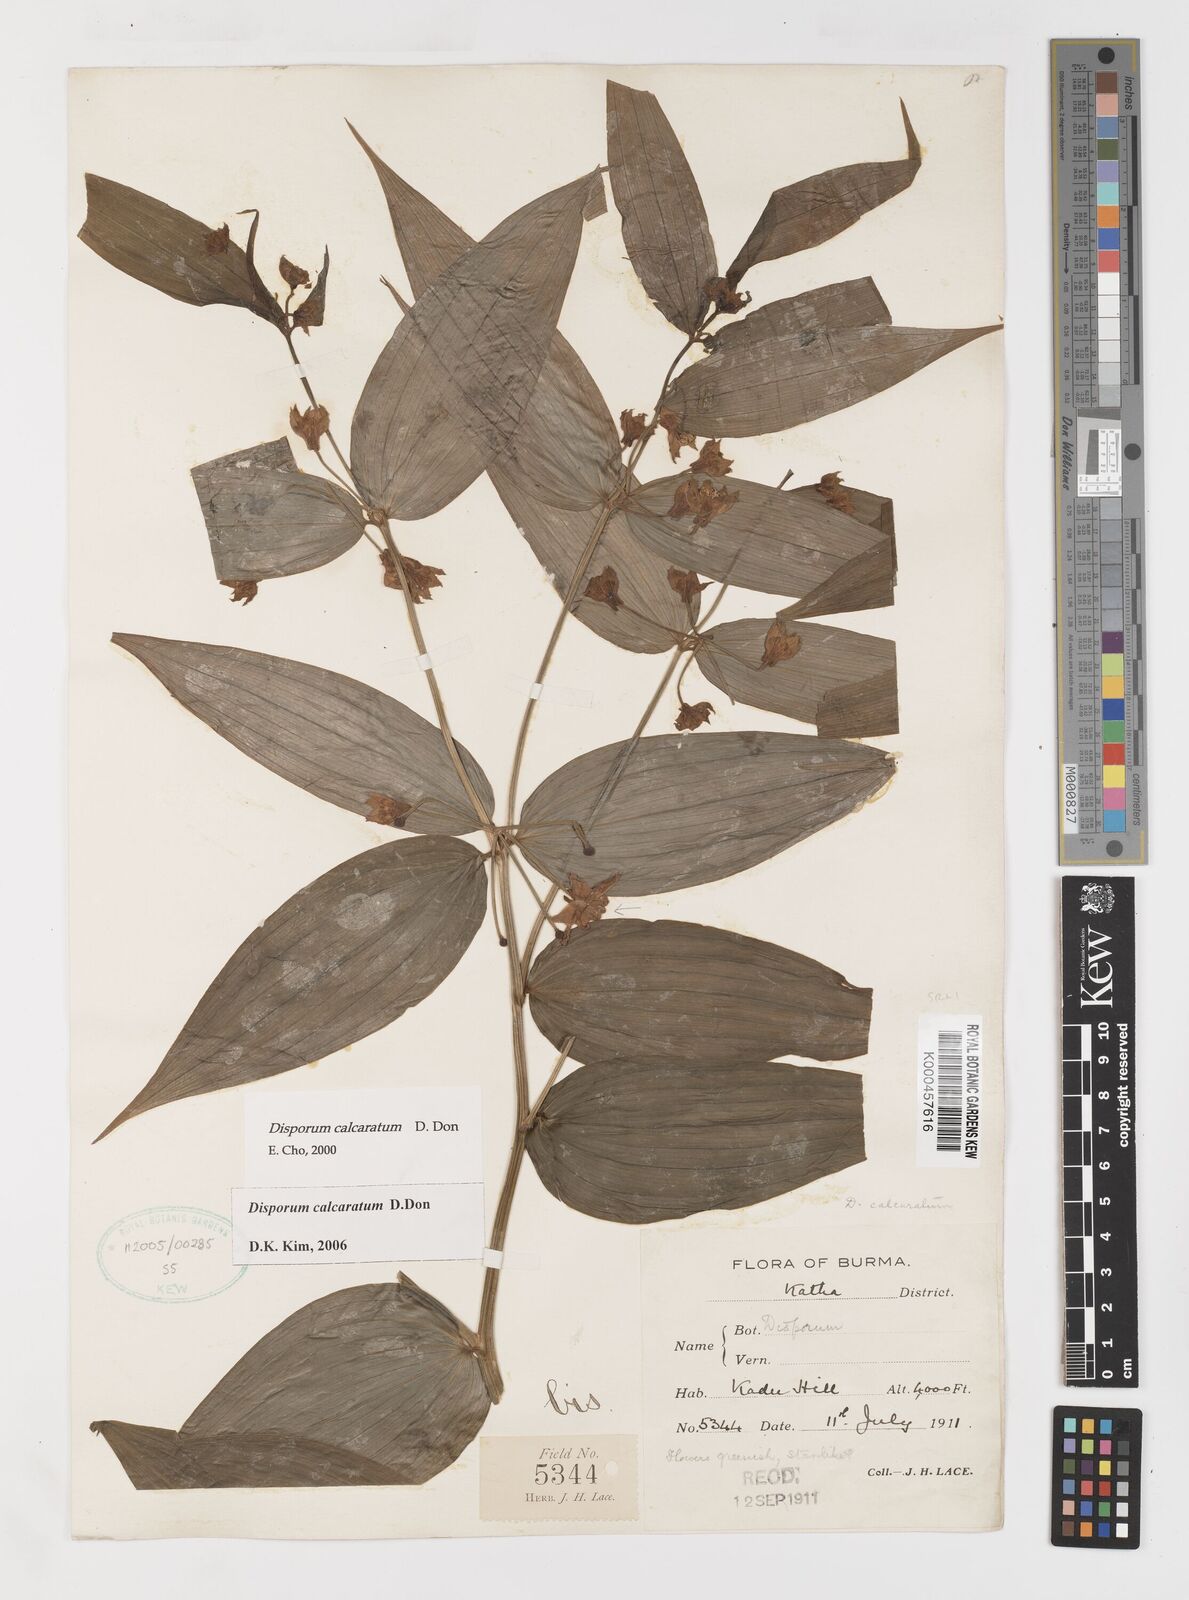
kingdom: Plantae
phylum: Tracheophyta
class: Liliopsida
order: Liliales
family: Colchicaceae
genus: Disporum
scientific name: Disporum calcaratum
